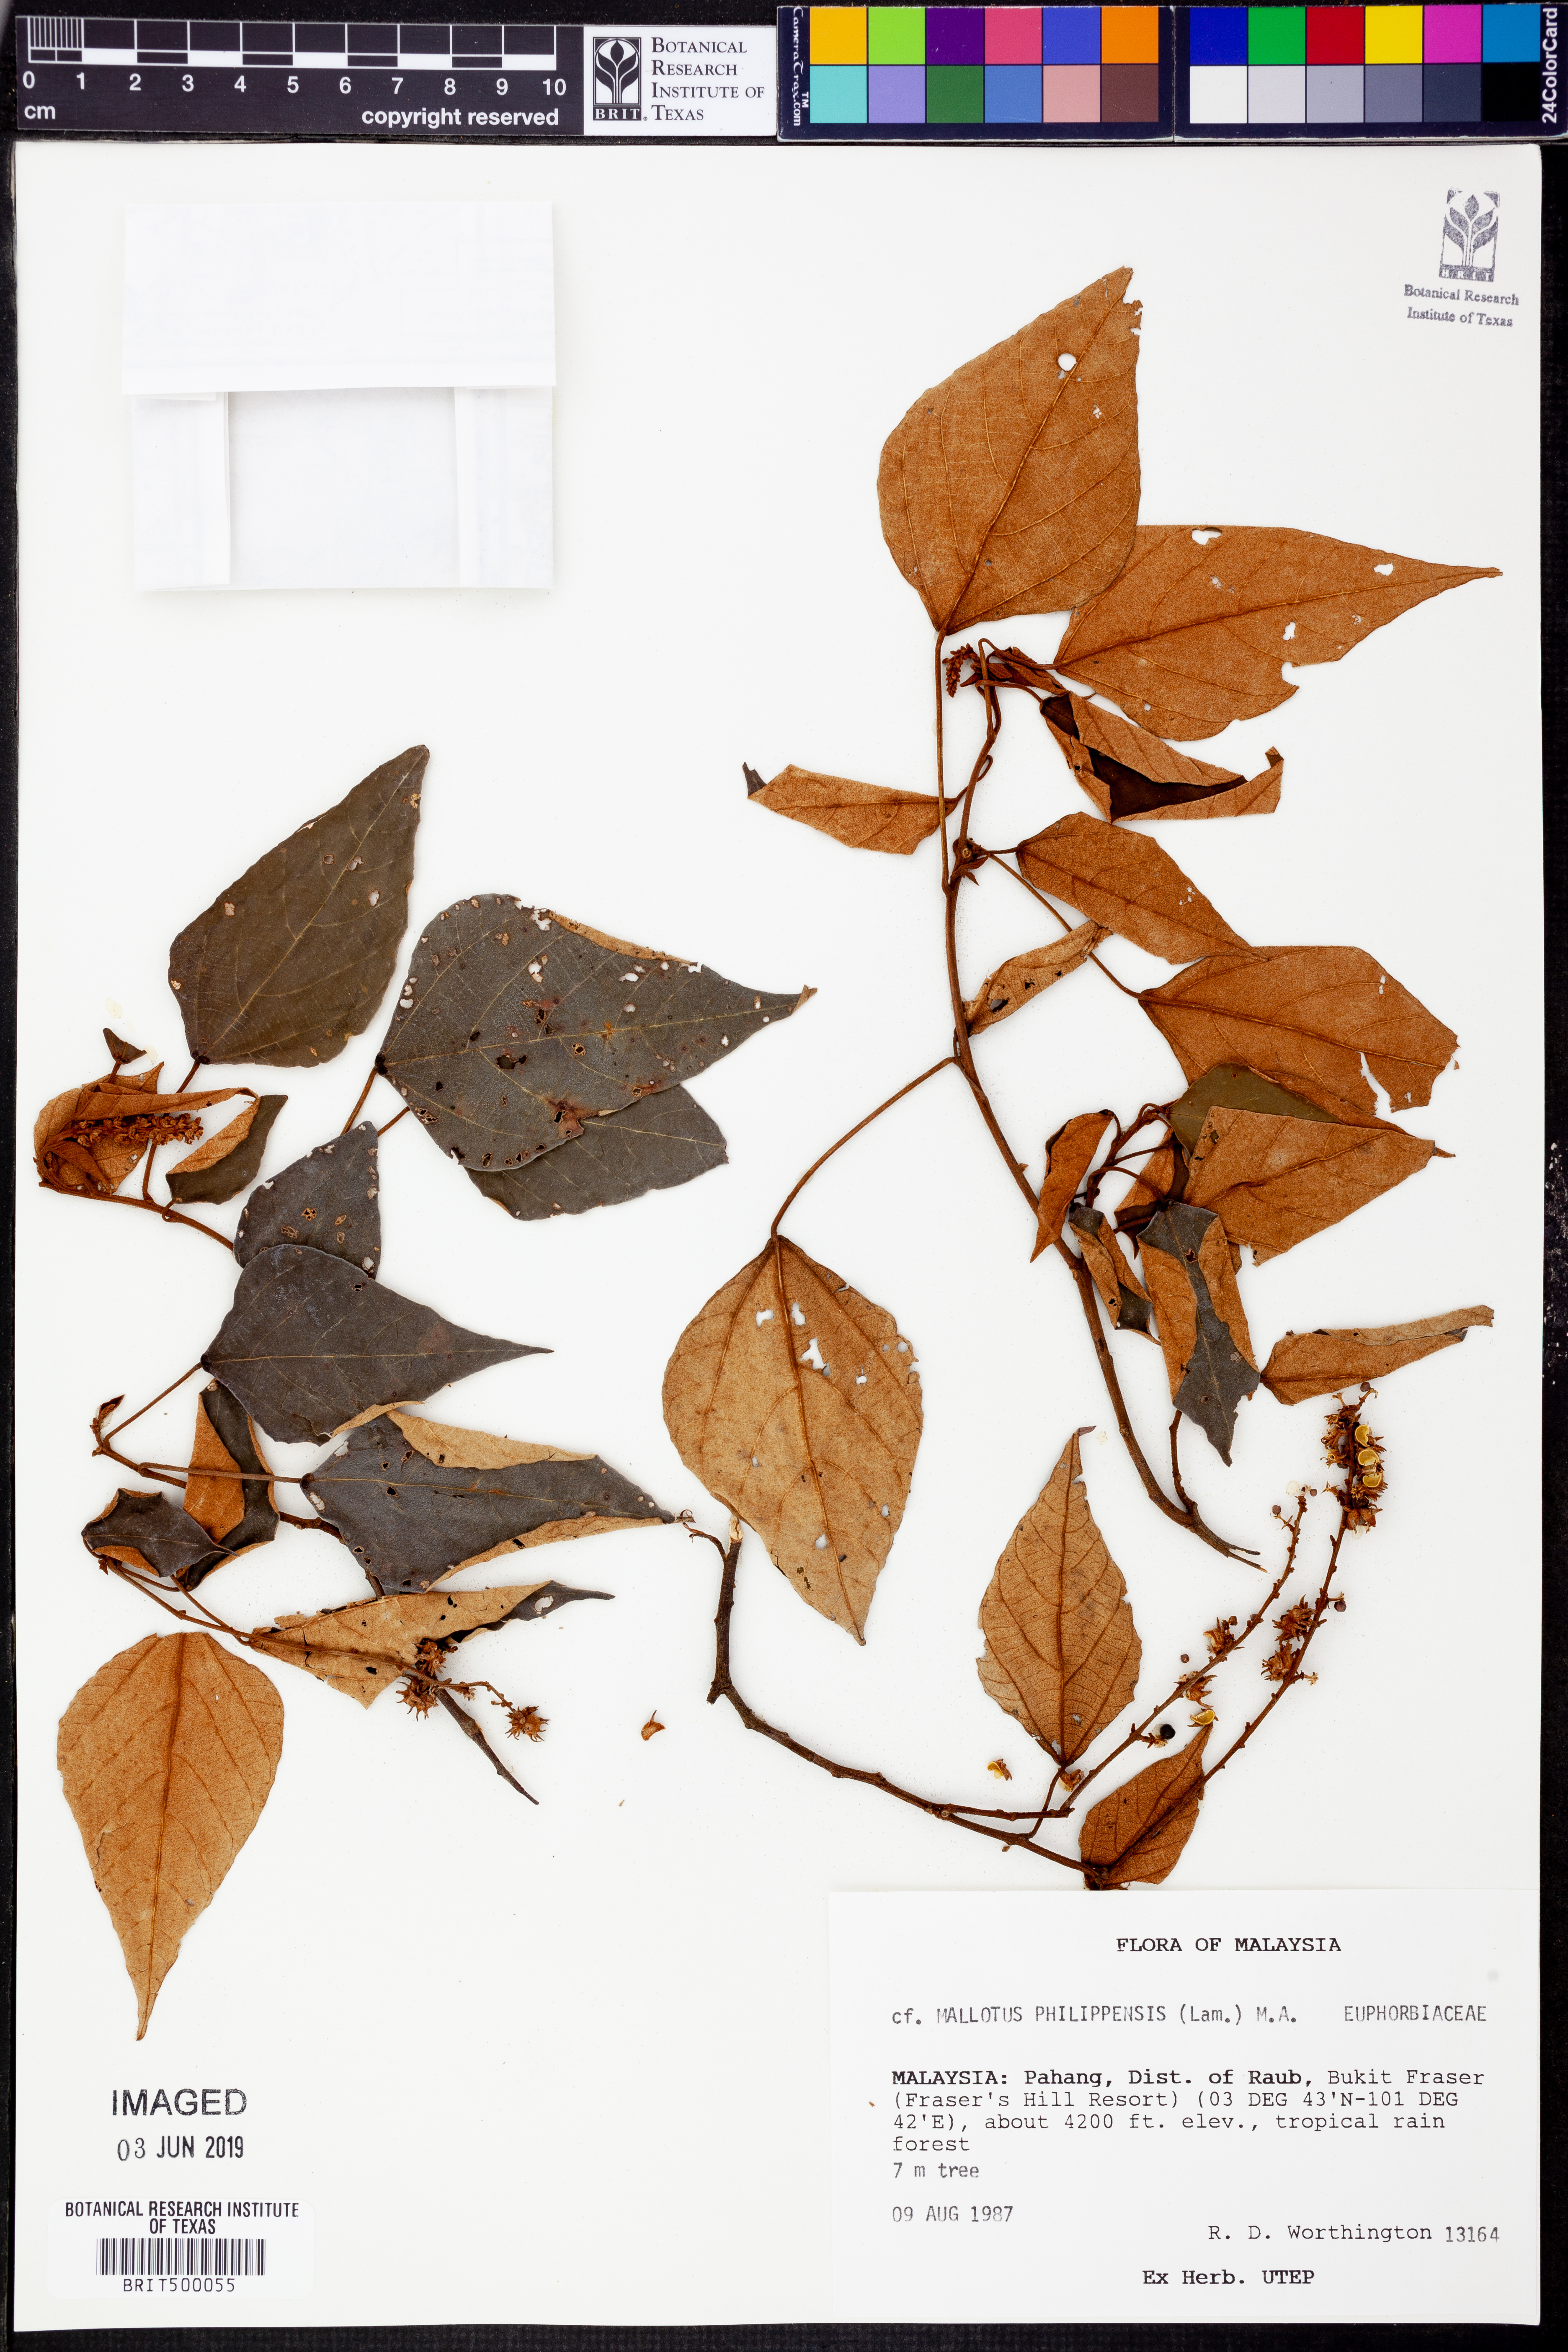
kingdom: Plantae
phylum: Tracheophyta
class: Magnoliopsida
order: Malpighiales
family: Euphorbiaceae
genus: Mallotus
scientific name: Mallotus philippensis
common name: Kamala tree
